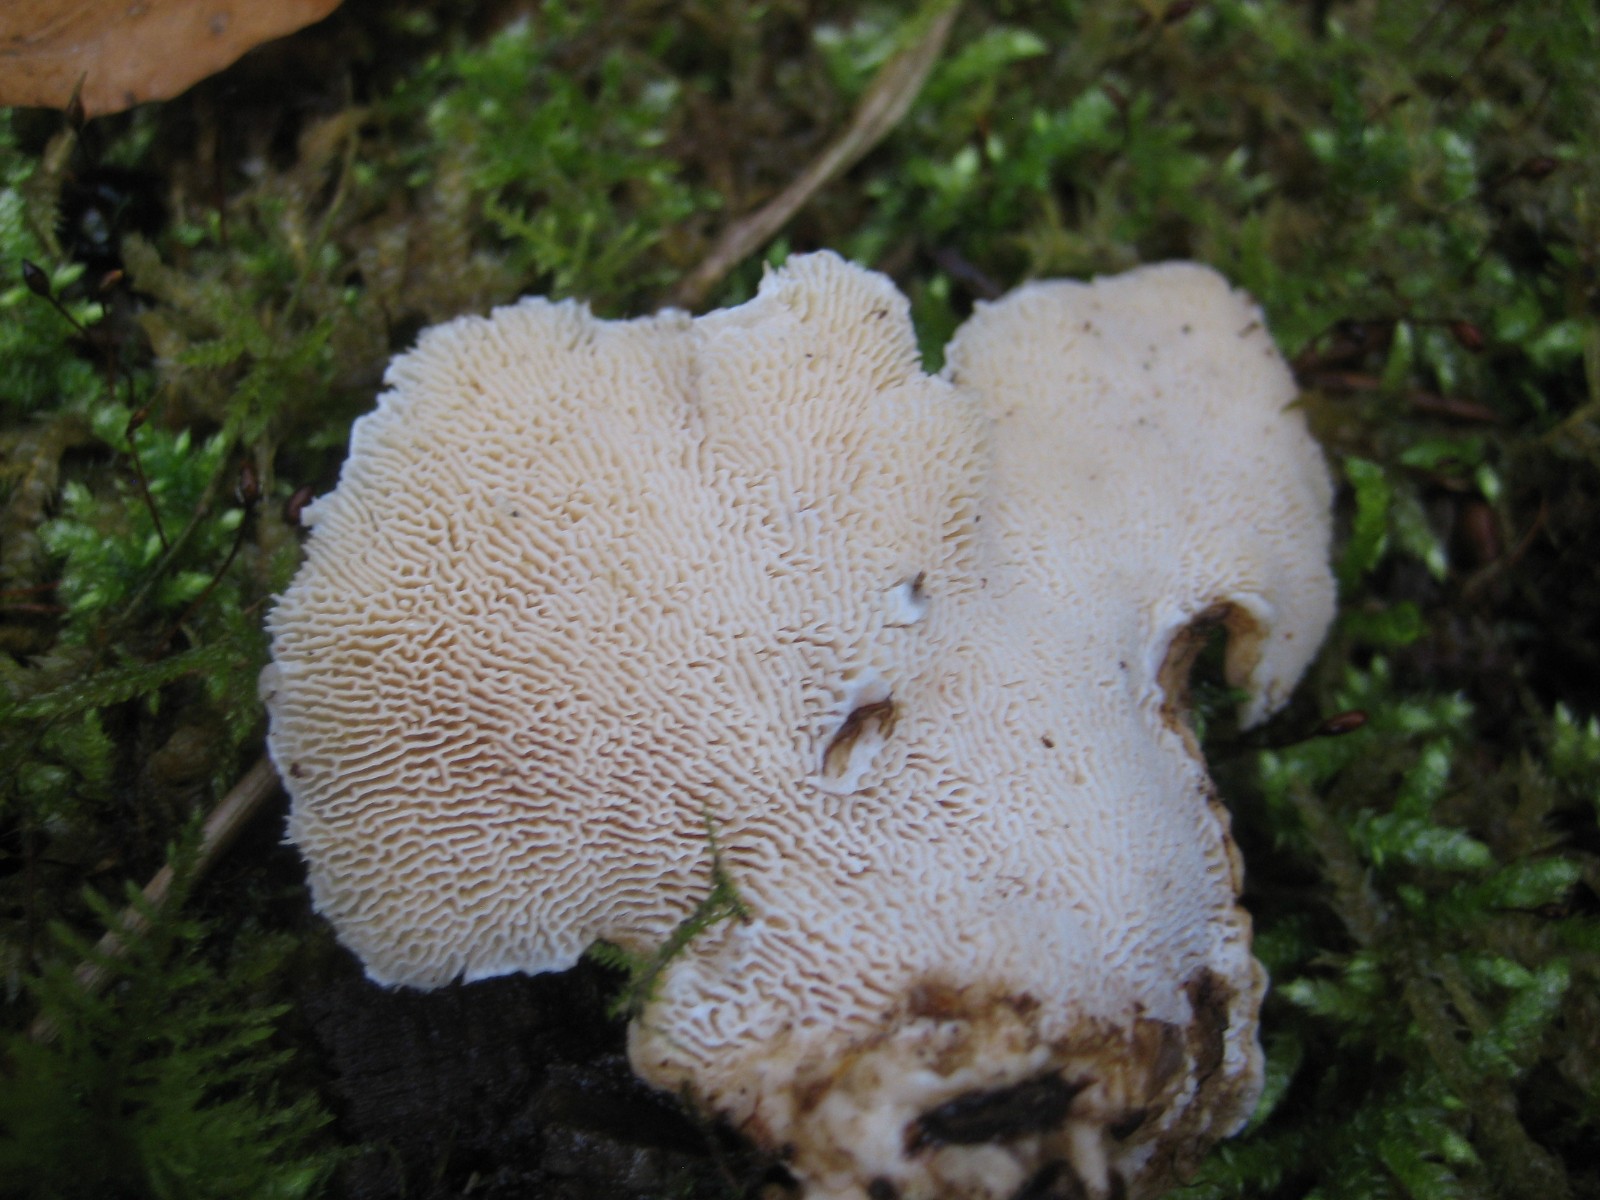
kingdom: Fungi
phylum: Basidiomycota
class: Agaricomycetes
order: Polyporales
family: Polyporaceae
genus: Trametes
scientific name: Trametes gibbosa
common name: puklet læderporesvamp
